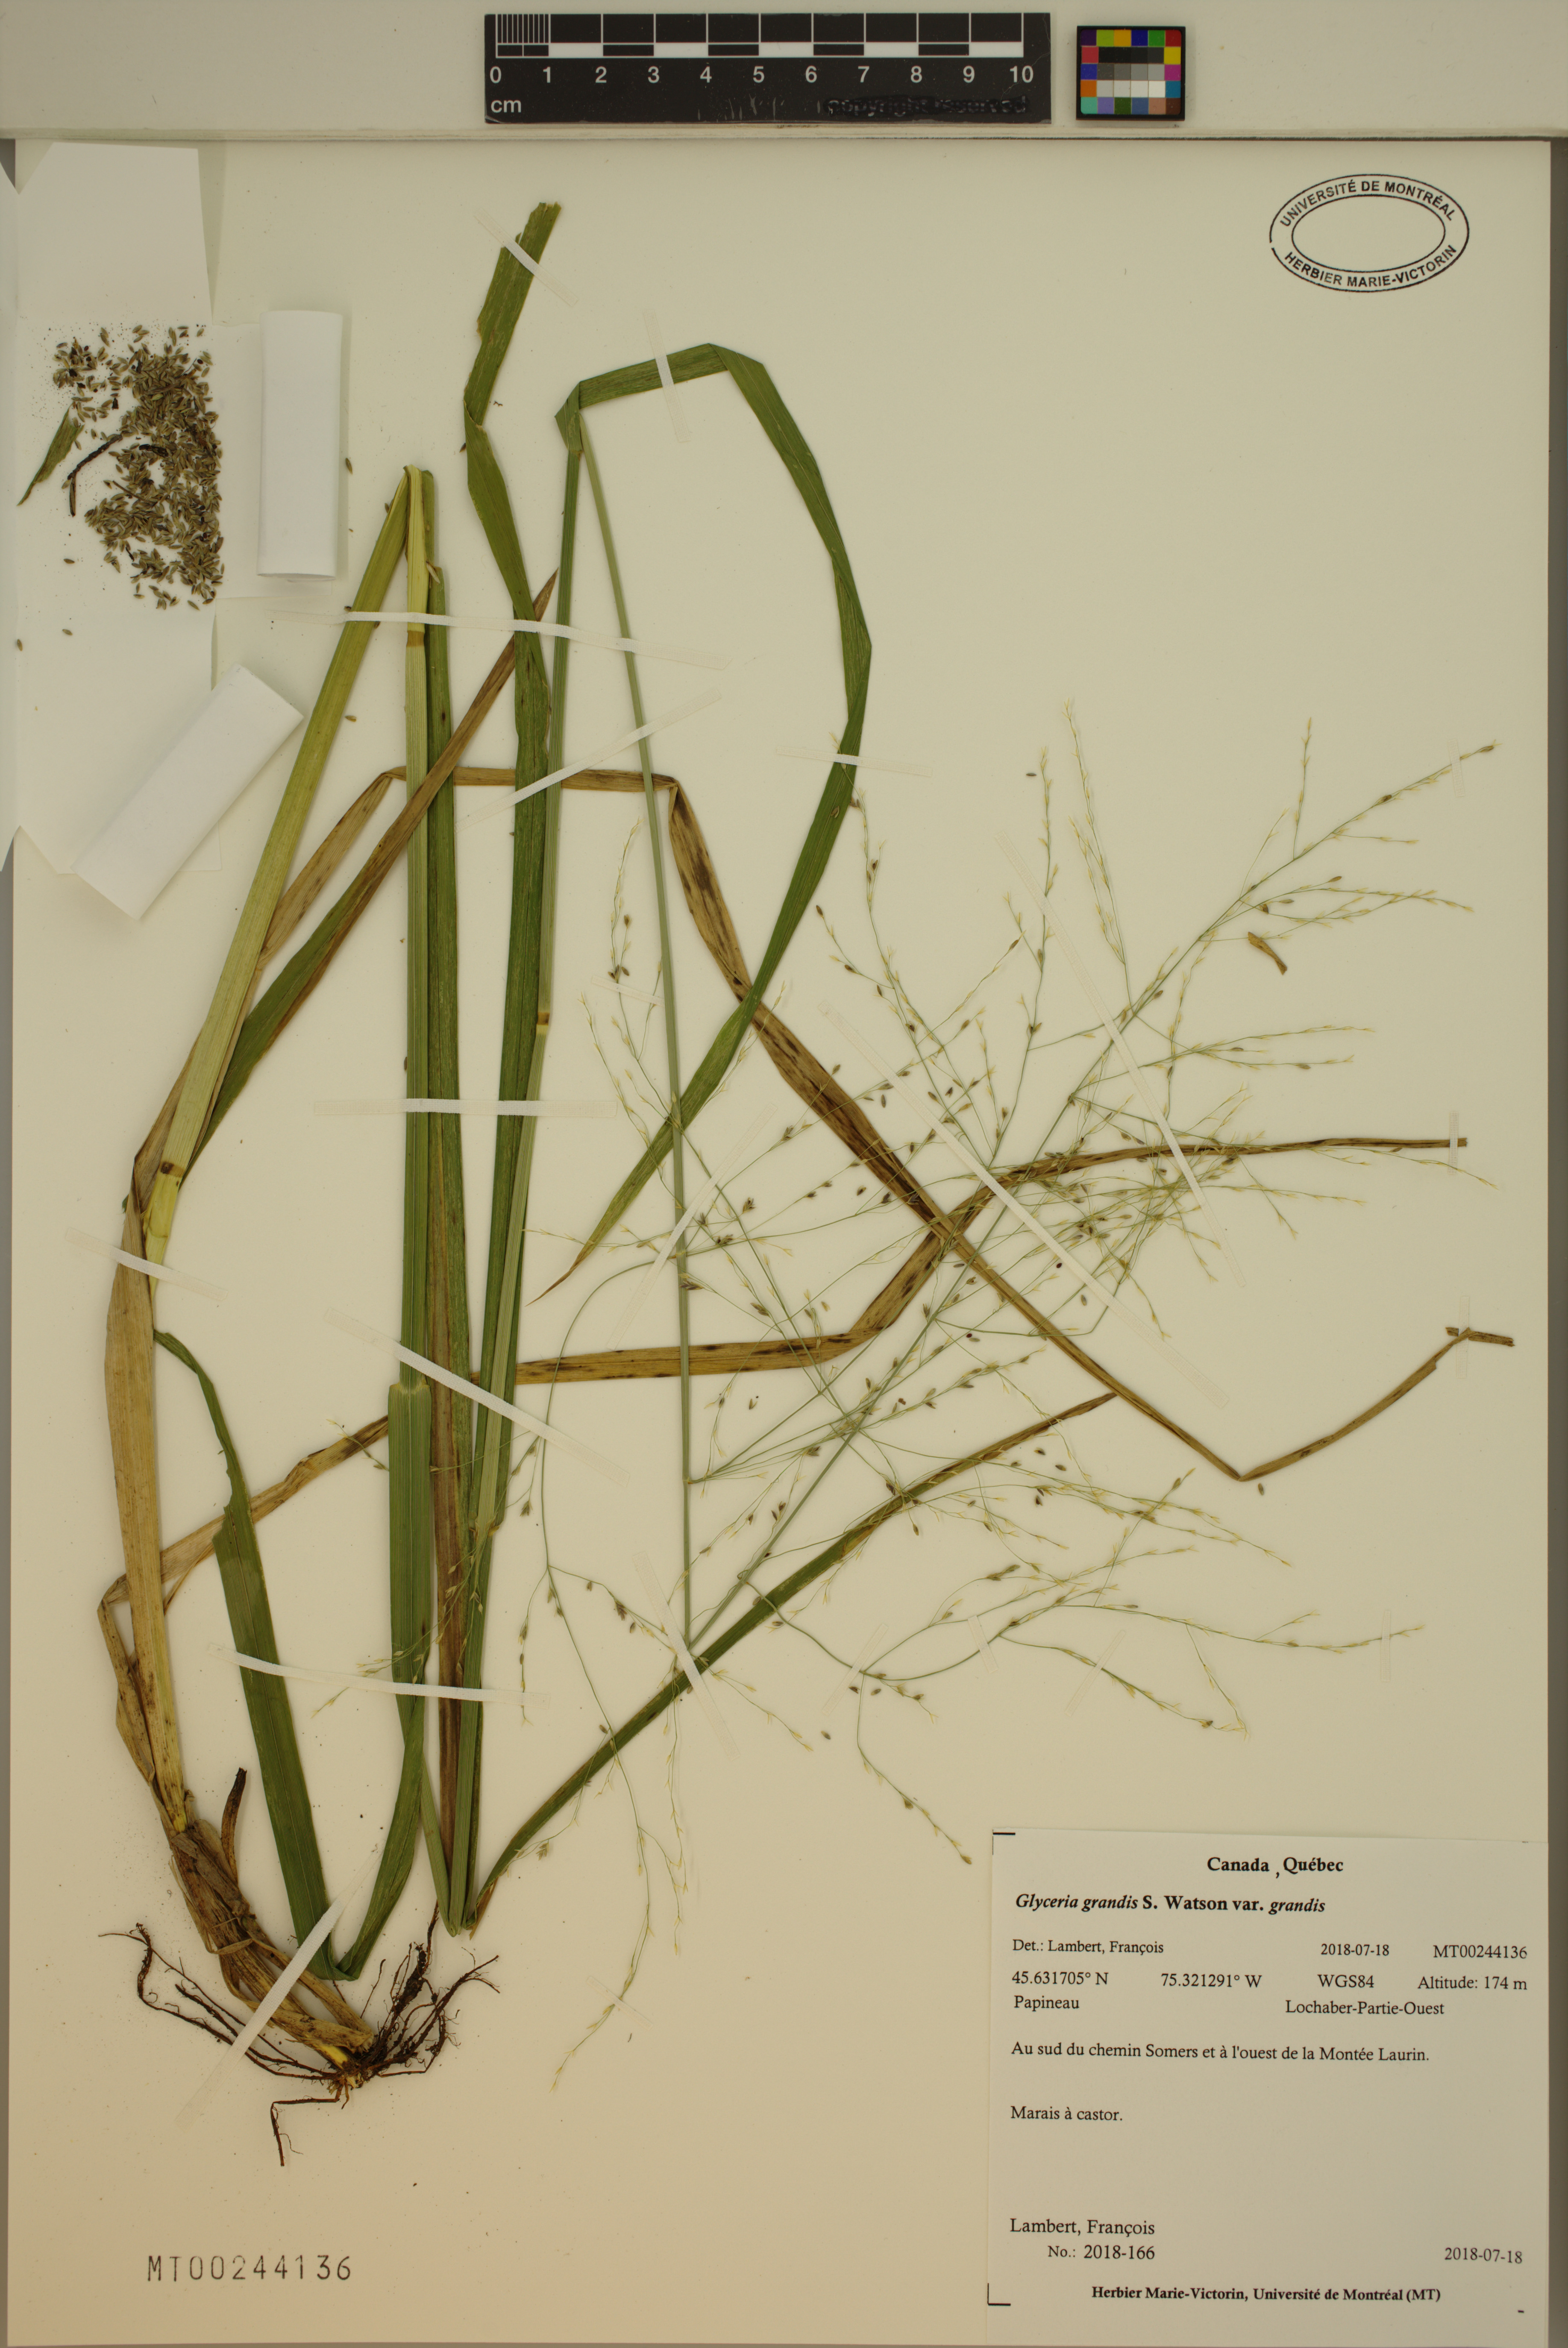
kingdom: Plantae
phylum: Tracheophyta
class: Liliopsida
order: Poales
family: Poaceae
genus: Glyceria
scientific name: Glyceria grandis
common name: American glyceria
